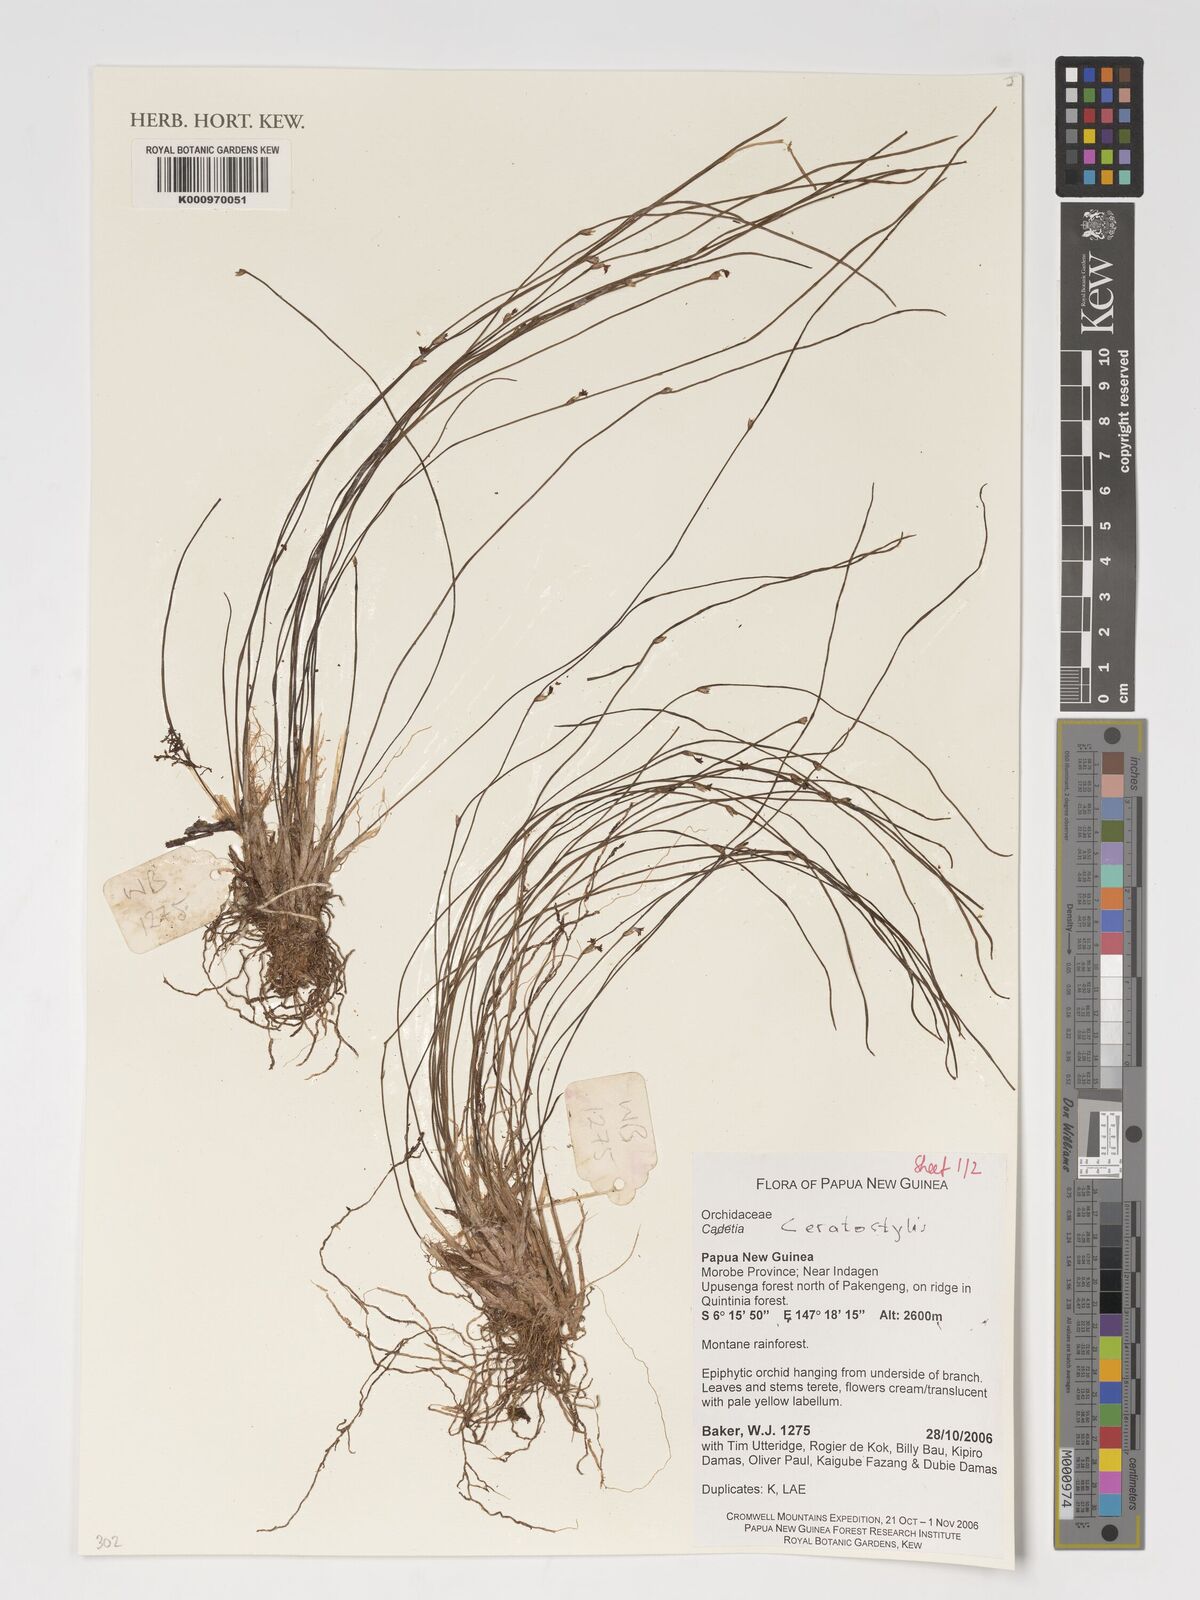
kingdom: Plantae
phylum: Tracheophyta
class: Liliopsida
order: Asparagales
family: Orchidaceae
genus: Ceratostylis
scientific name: Ceratostylis
